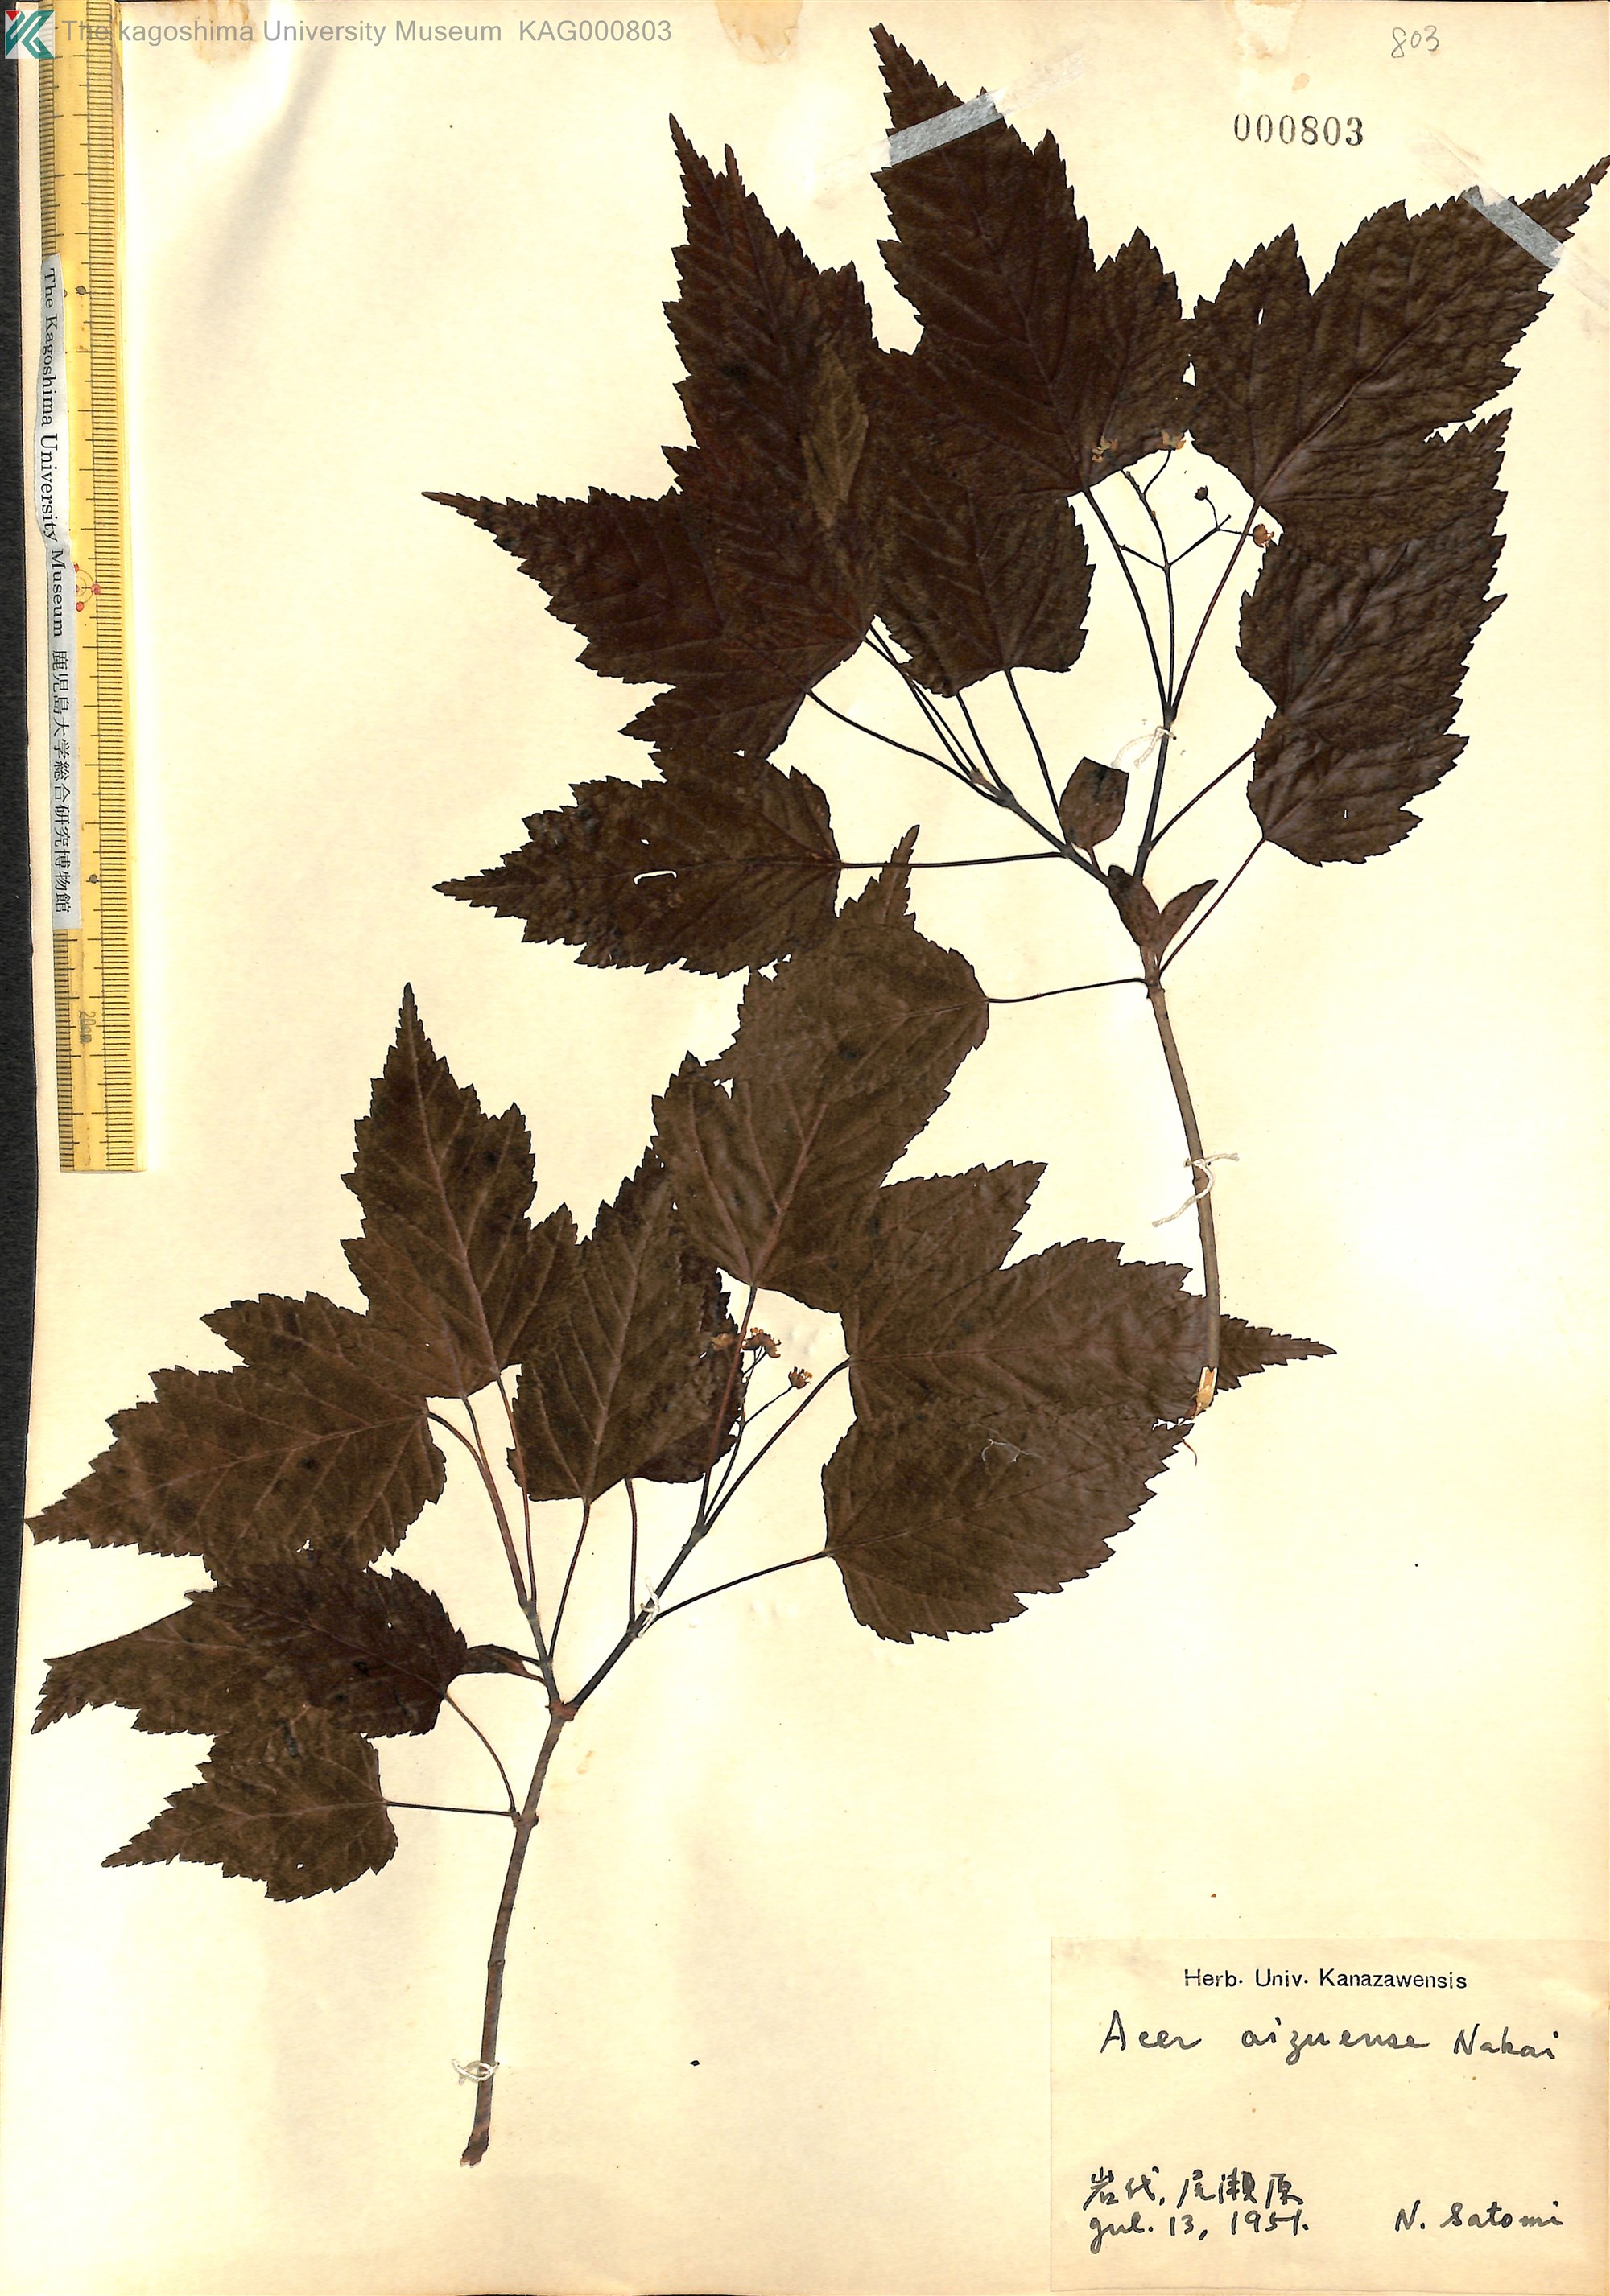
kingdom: Plantae
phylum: Tracheophyta
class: Magnoliopsida
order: Sapindales
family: Sapindaceae
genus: Acer
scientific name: Acer tataricum
